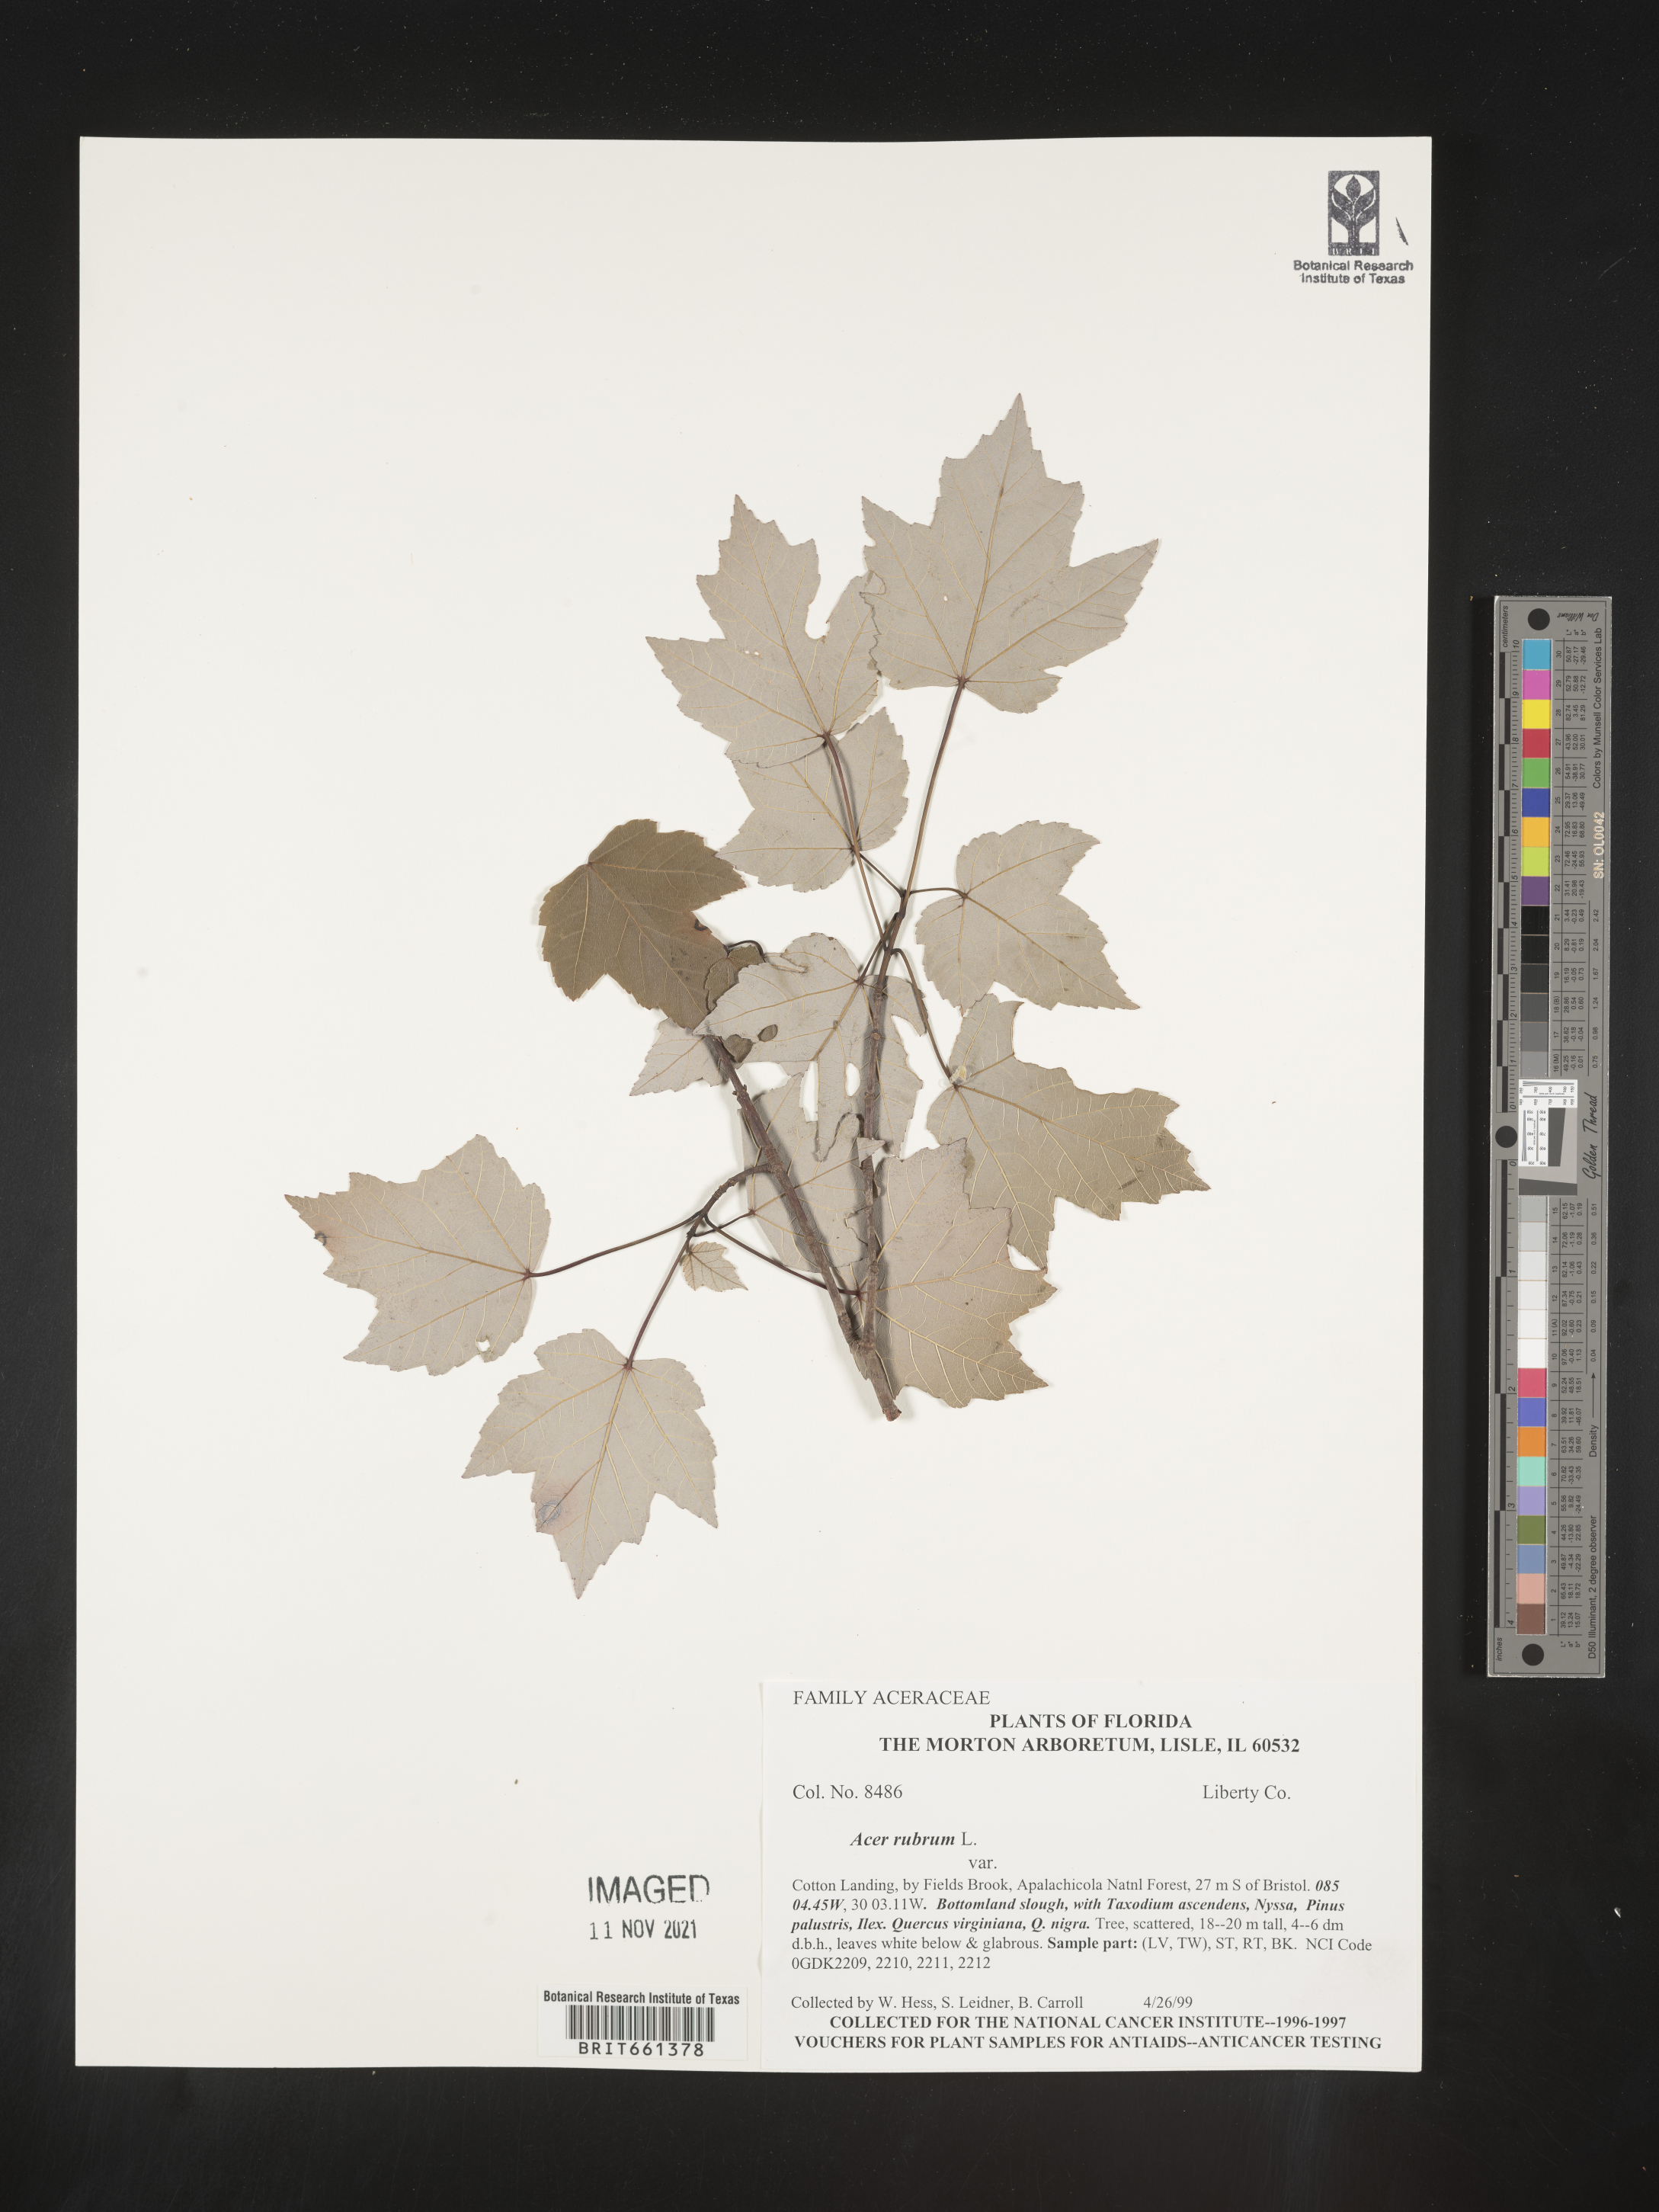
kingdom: Plantae
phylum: Tracheophyta
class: Magnoliopsida
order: Sapindales
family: Sapindaceae
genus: Acer
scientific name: Acer rubrum
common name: Red maple
